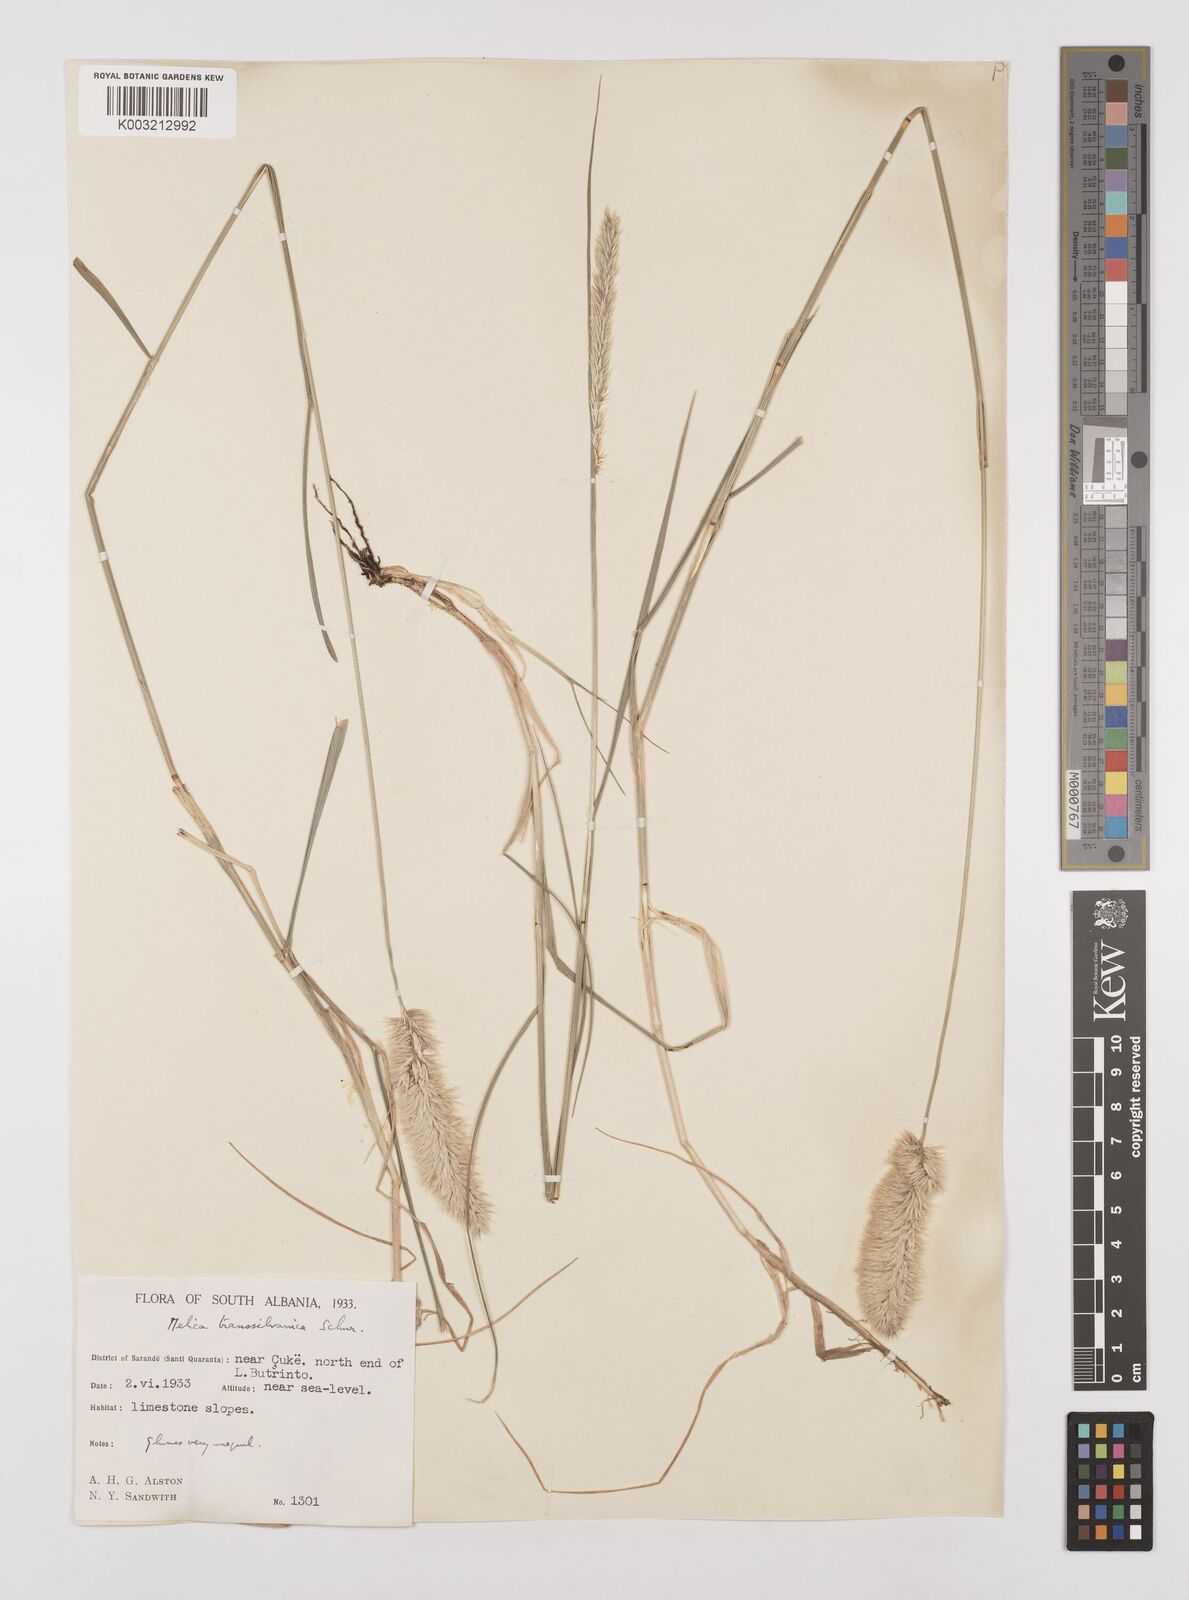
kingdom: Plantae
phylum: Tracheophyta
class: Liliopsida
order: Poales
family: Poaceae
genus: Melica
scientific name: Melica transsilvanica
